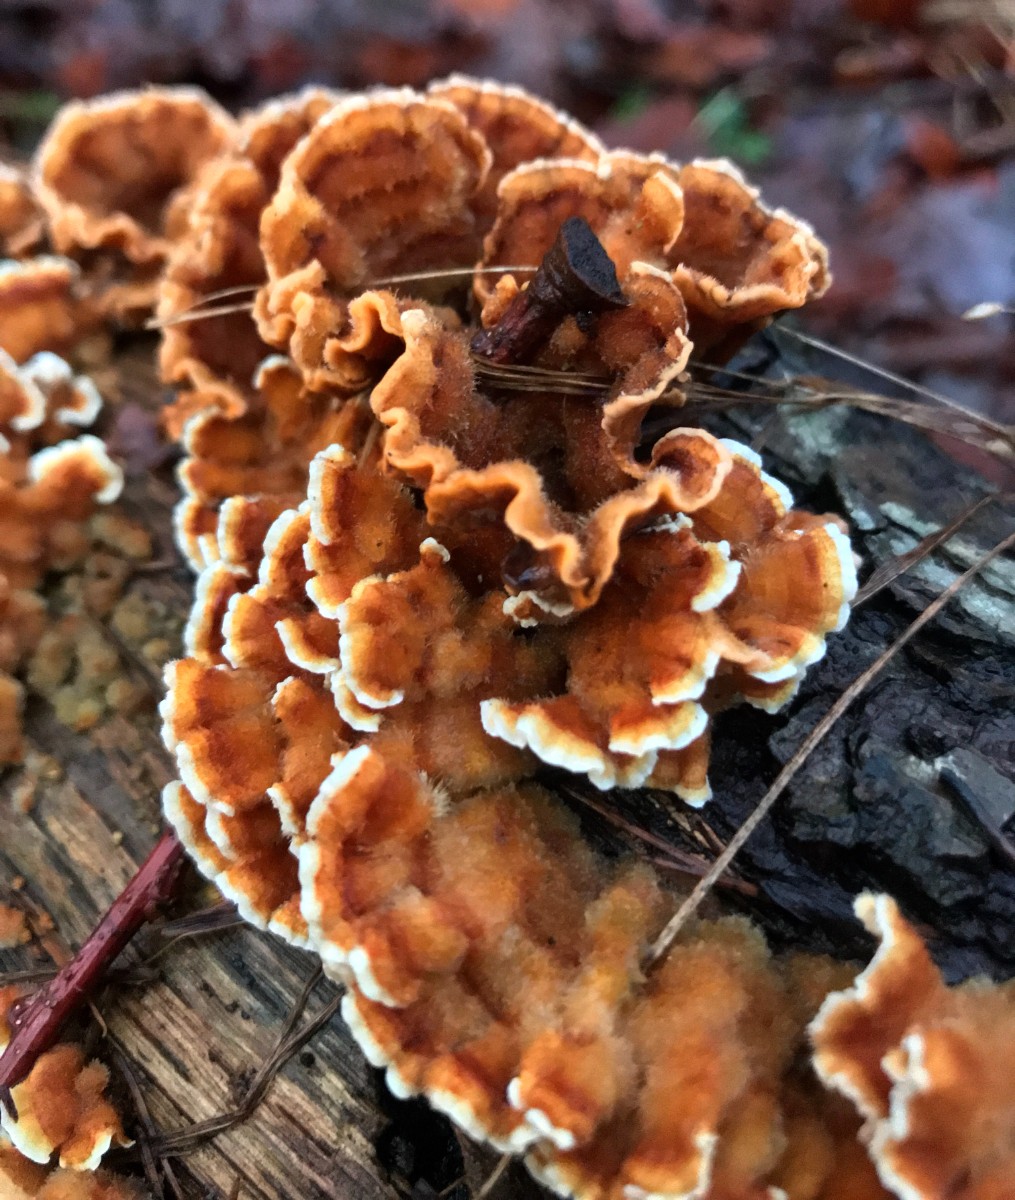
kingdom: Fungi
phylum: Basidiomycota
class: Agaricomycetes
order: Russulales
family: Stereaceae
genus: Stereum
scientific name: Stereum hirsutum
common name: håret lædersvamp
